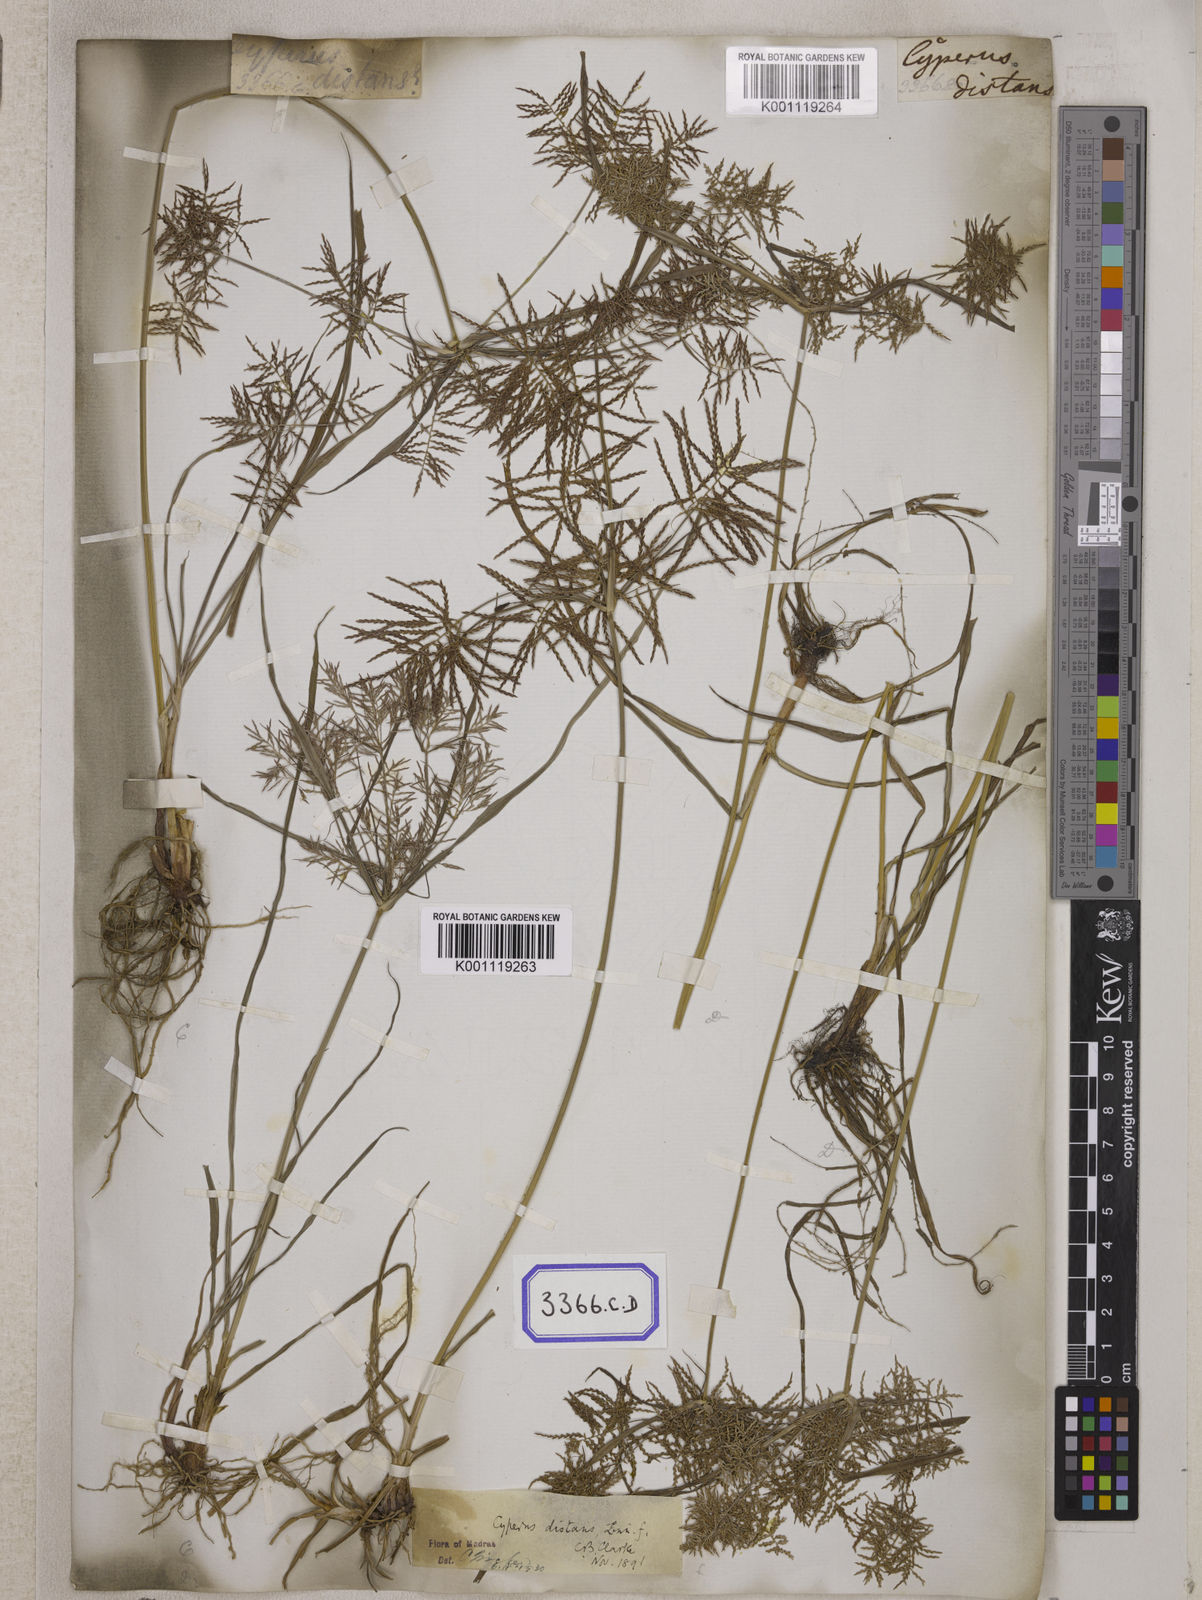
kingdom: Plantae
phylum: Tracheophyta
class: Liliopsida
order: Poales
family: Cyperaceae
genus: Cyperus
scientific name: Cyperus
